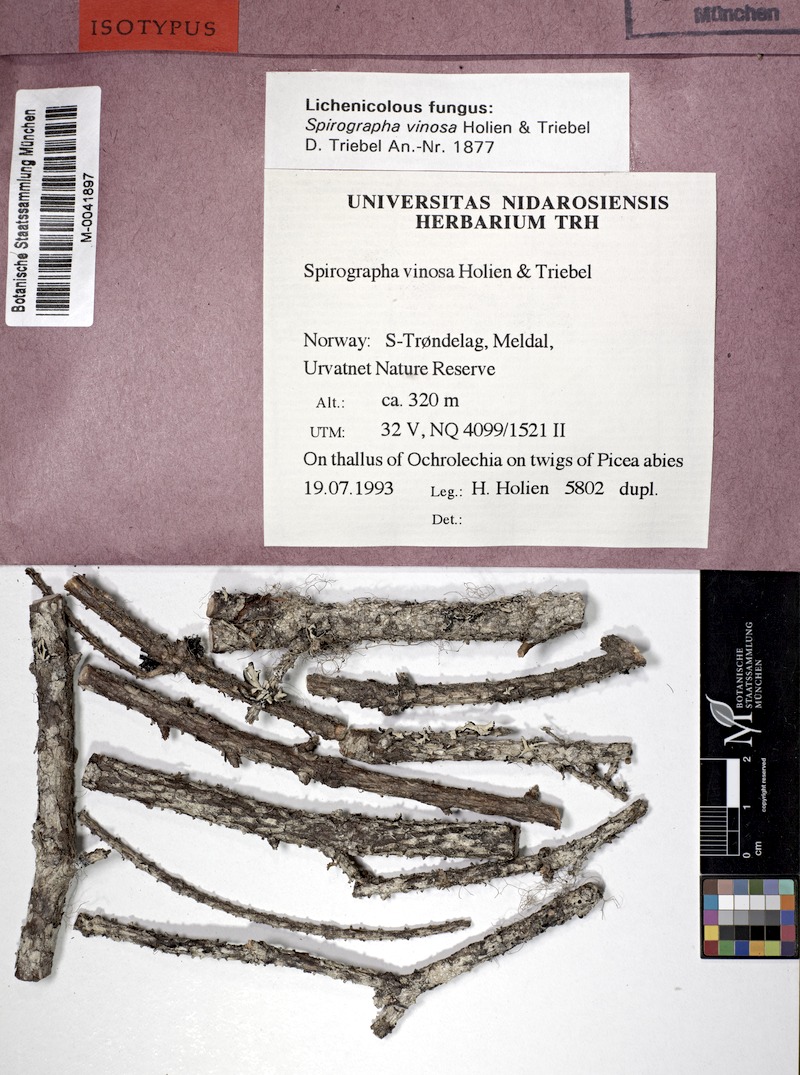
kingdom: Fungi
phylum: Ascomycota
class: Lecanoromycetes
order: Pertusariales
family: Ochrolechiaceae
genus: Ochrolechia
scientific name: Ochrolechia
